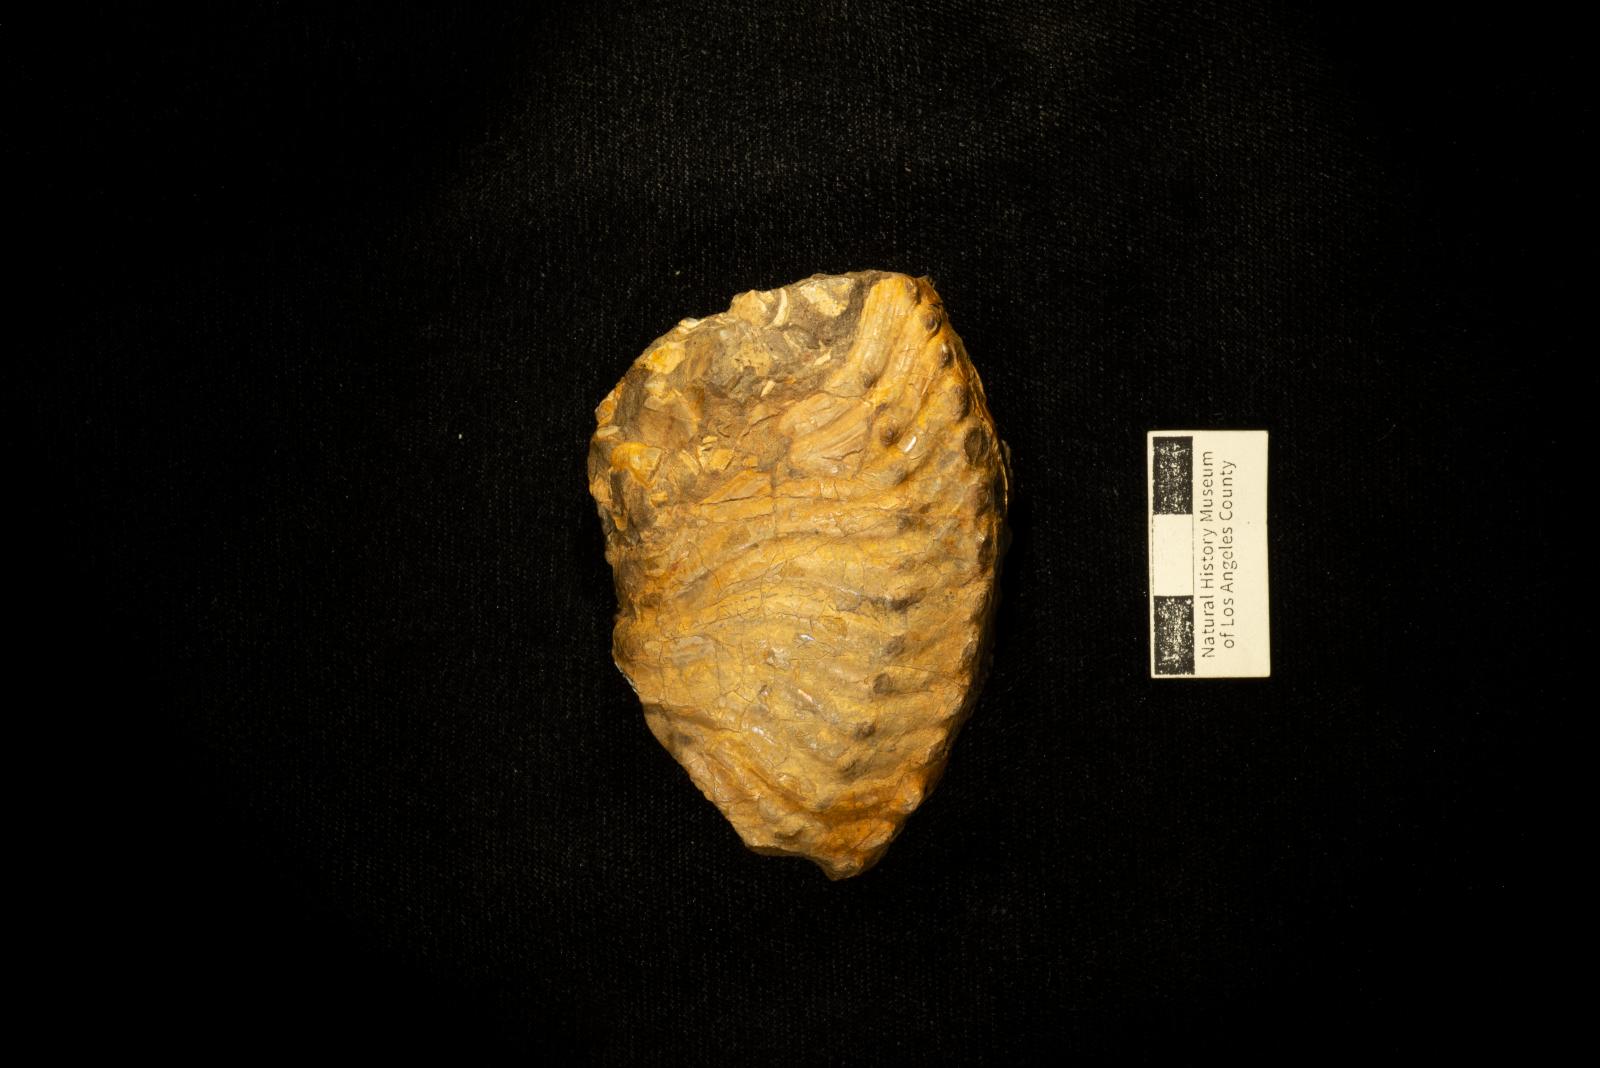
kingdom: Animalia
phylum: Mollusca
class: Cephalopoda
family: Placenticeratidae
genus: Metaplacenticeras
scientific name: Metaplacenticeras Placenticeras californicum
